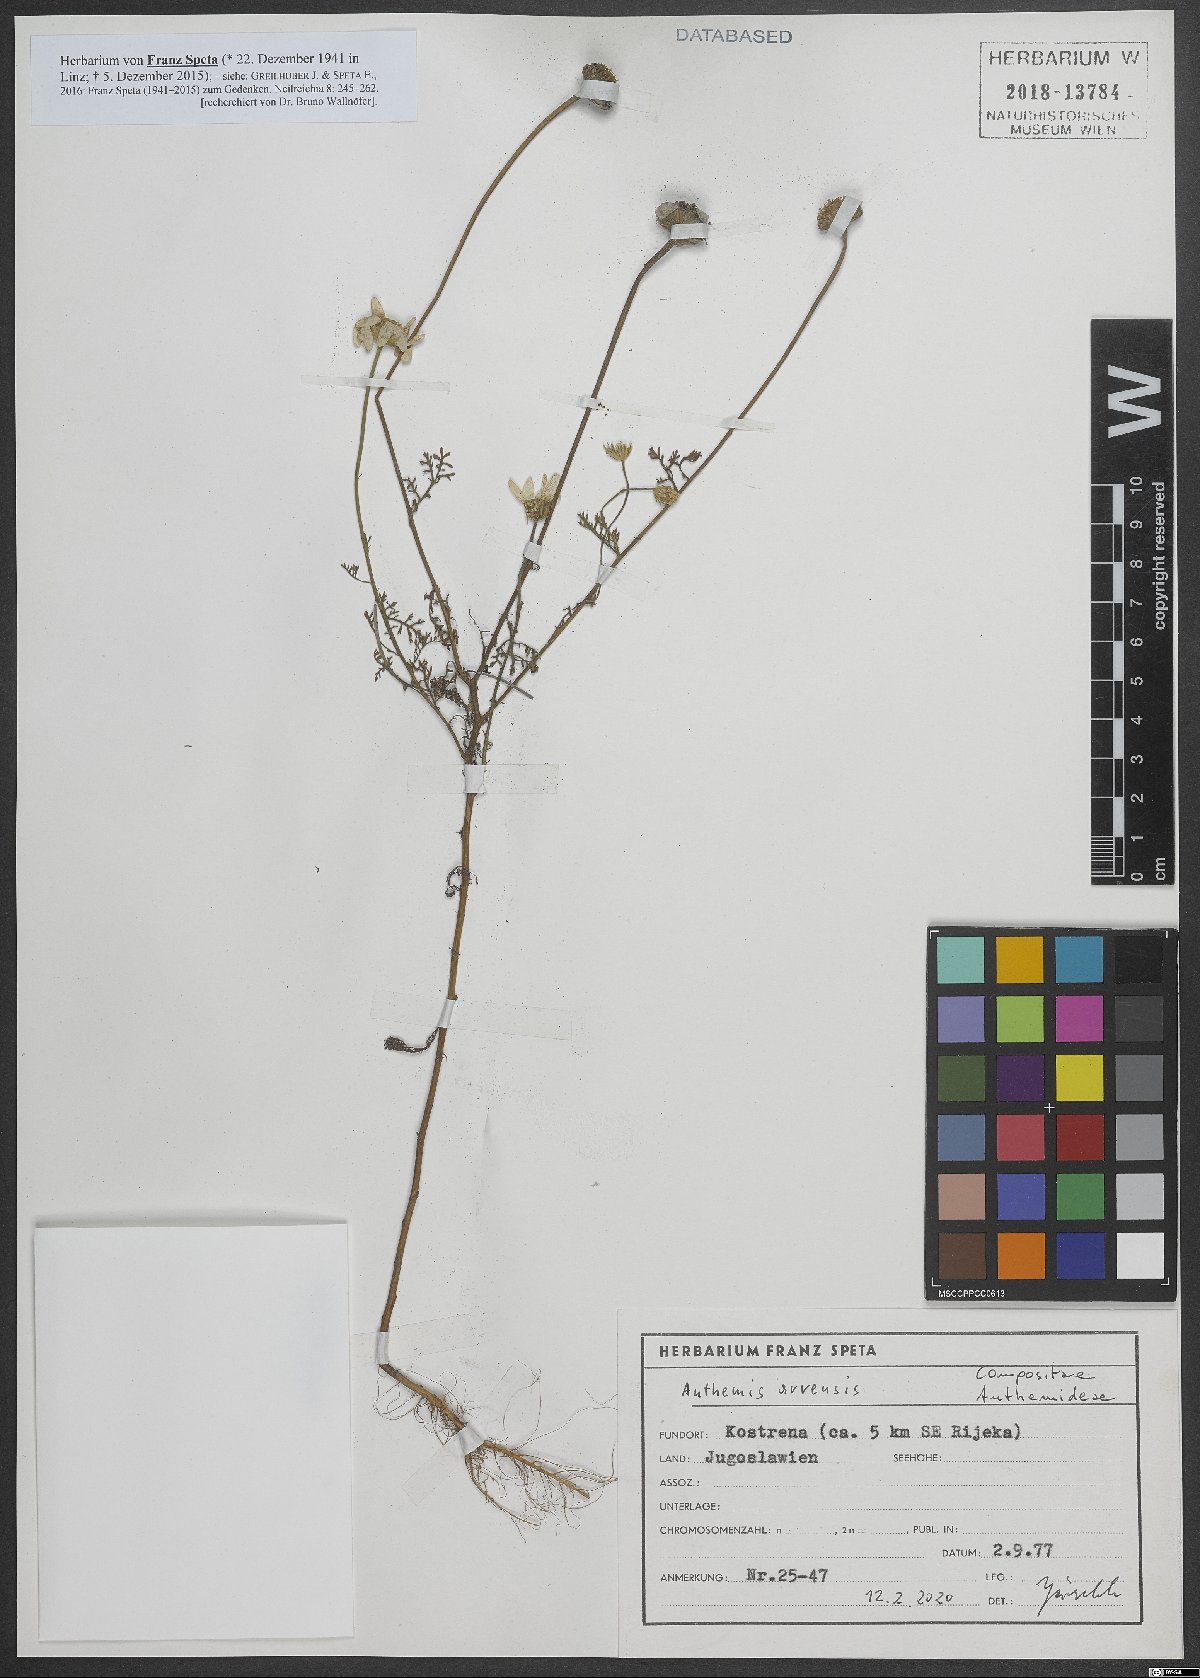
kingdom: Plantae
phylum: Tracheophyta
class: Magnoliopsida
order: Asterales
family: Asteraceae
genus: Anthemis
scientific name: Anthemis arvensis
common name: Corn chamomile
